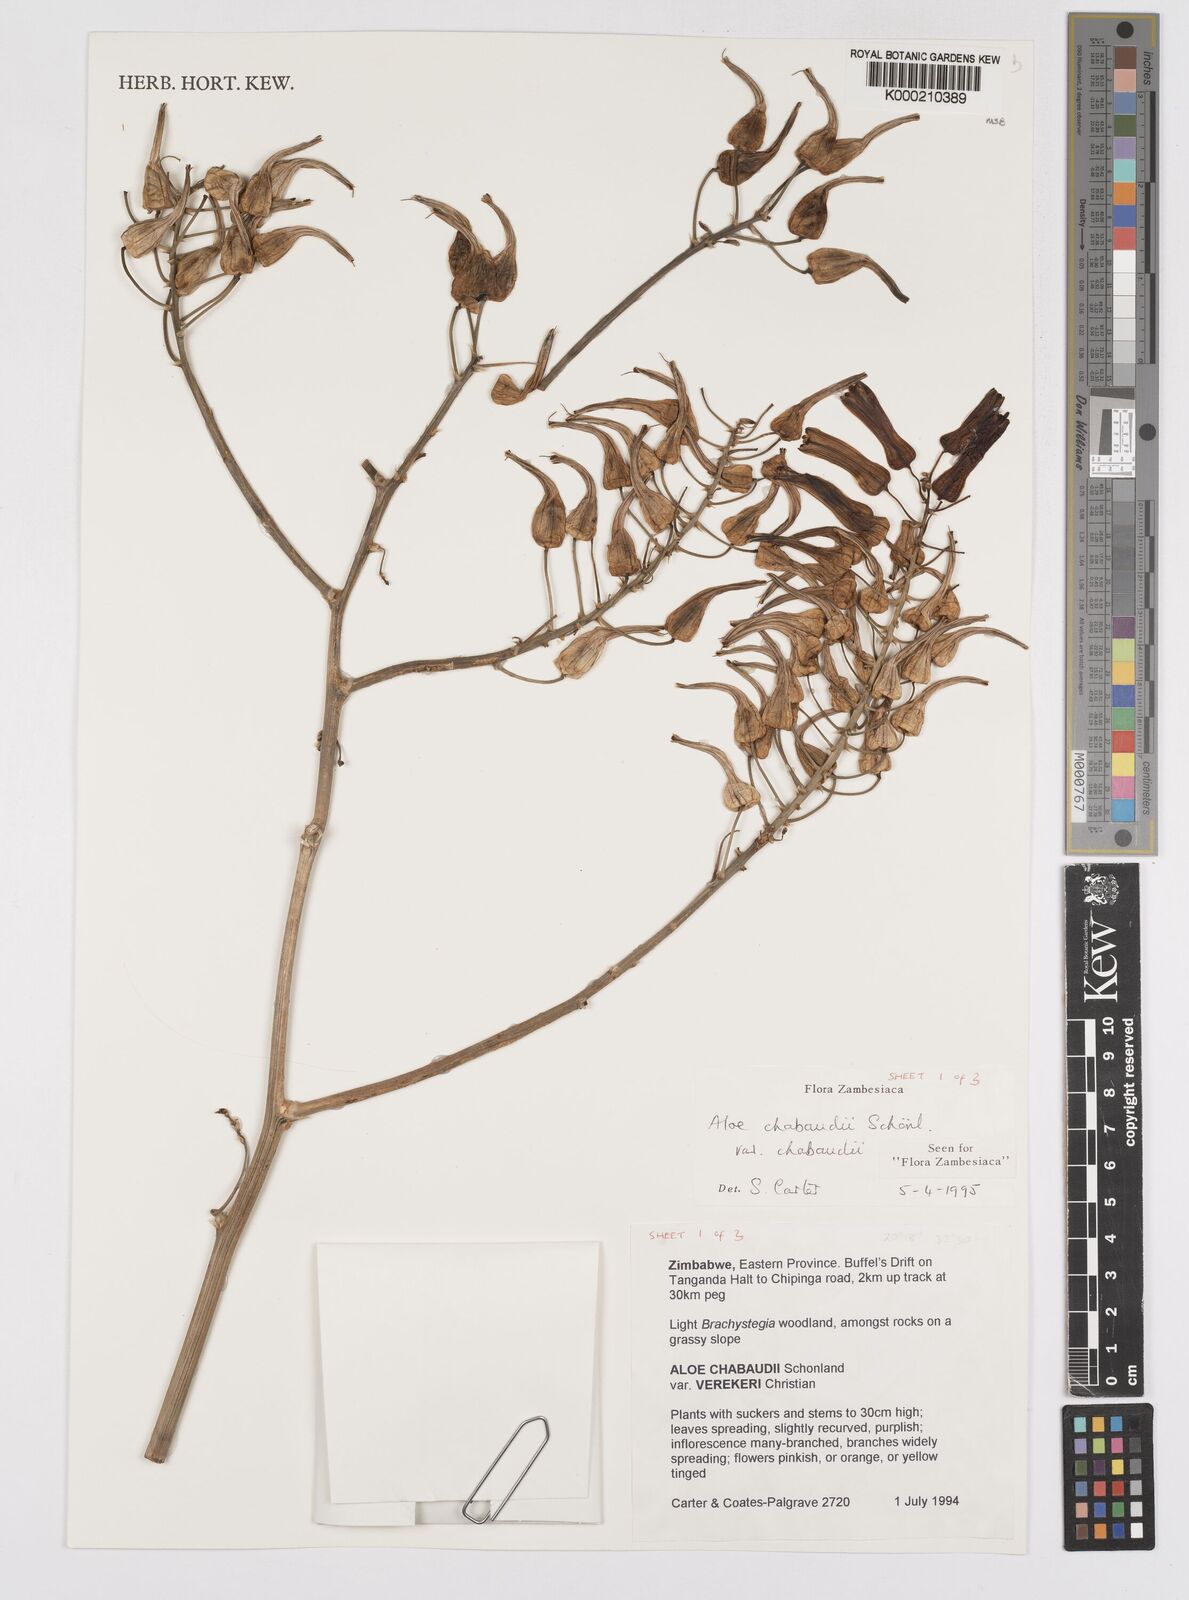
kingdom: Plantae
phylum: Tracheophyta
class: Liliopsida
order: Asparagales
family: Asphodelaceae
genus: Aloe
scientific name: Aloe chabaudii
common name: Chabaud's aloe
